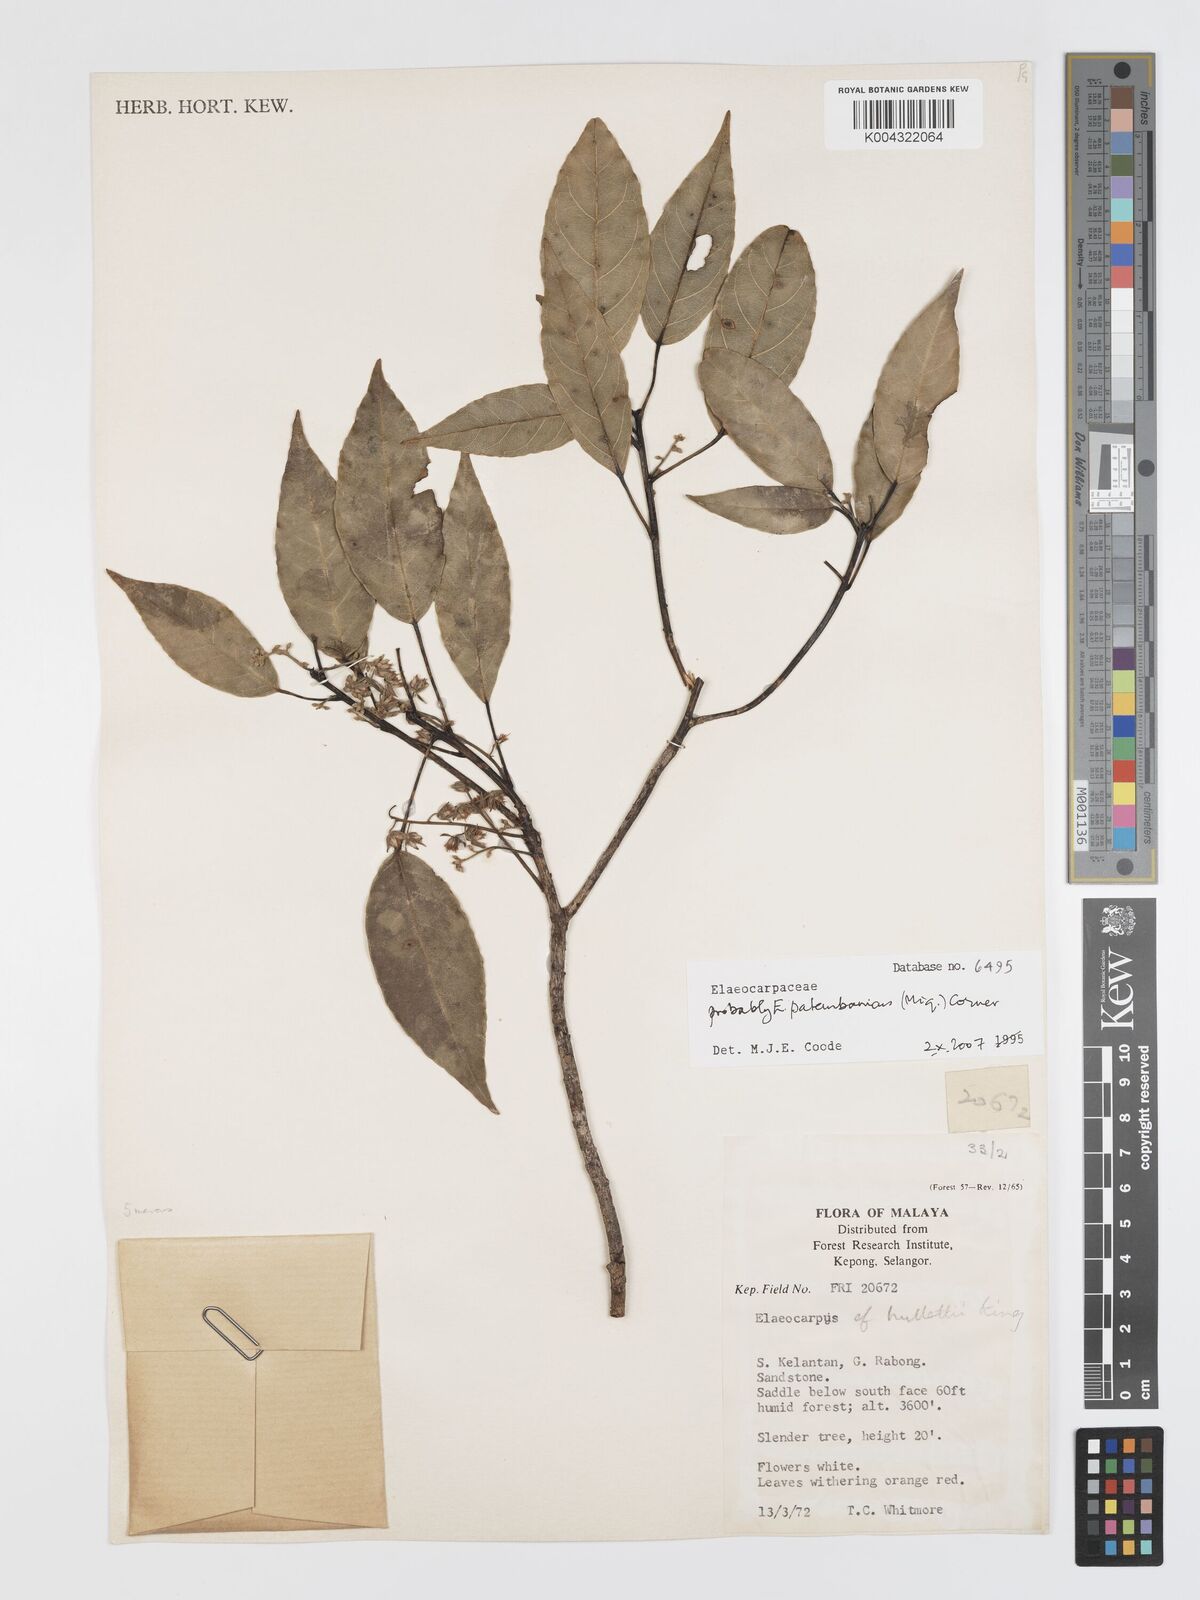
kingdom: Plantae
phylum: Tracheophyta
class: Magnoliopsida
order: Oxalidales
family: Elaeocarpaceae
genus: Elaeocarpus
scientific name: Elaeocarpus palembanicus
